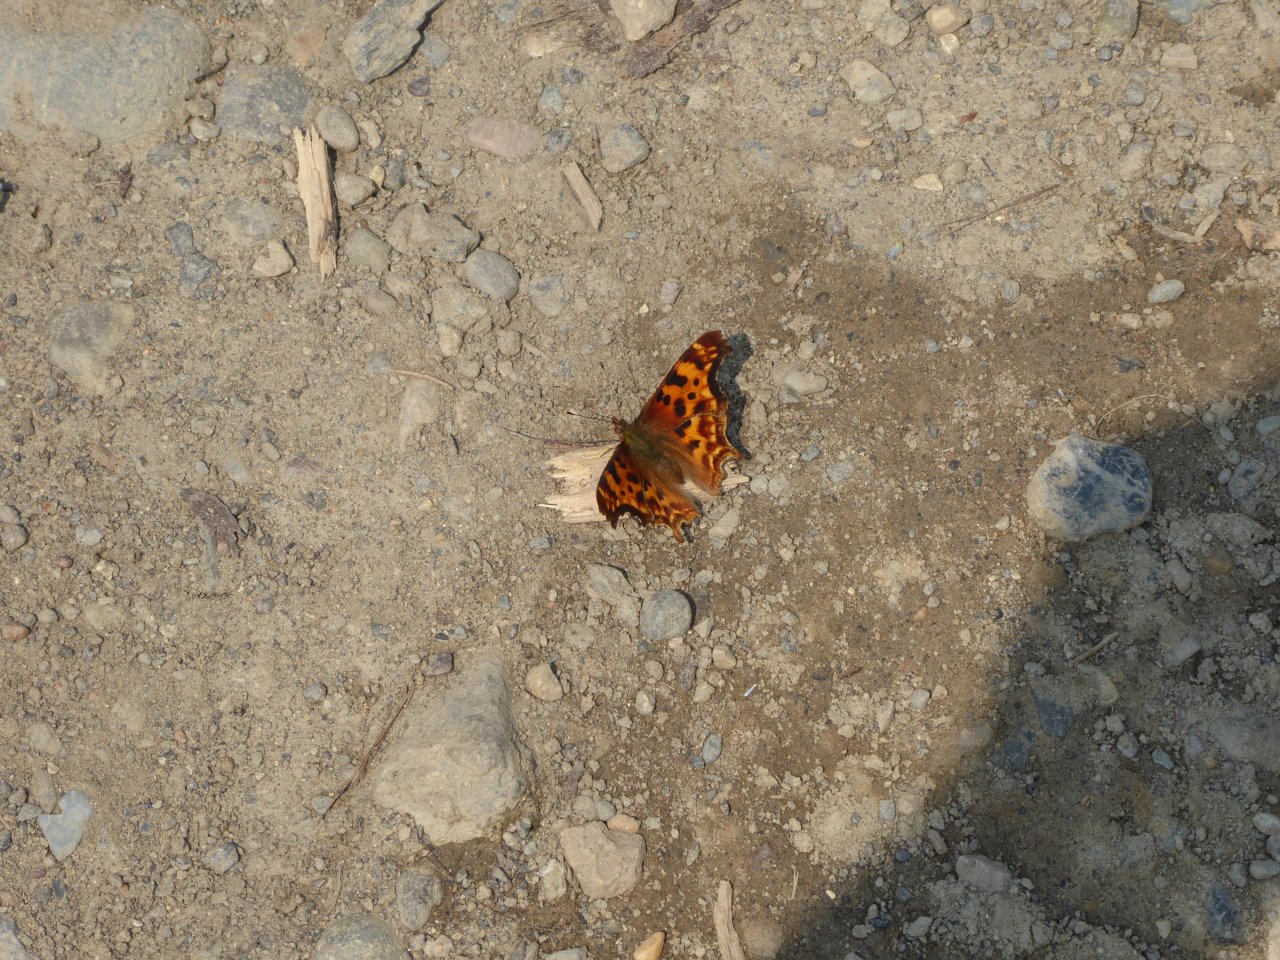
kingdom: Animalia
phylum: Arthropoda
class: Insecta
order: Lepidoptera
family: Nymphalidae
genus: Polygonia
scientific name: Polygonia oreas
